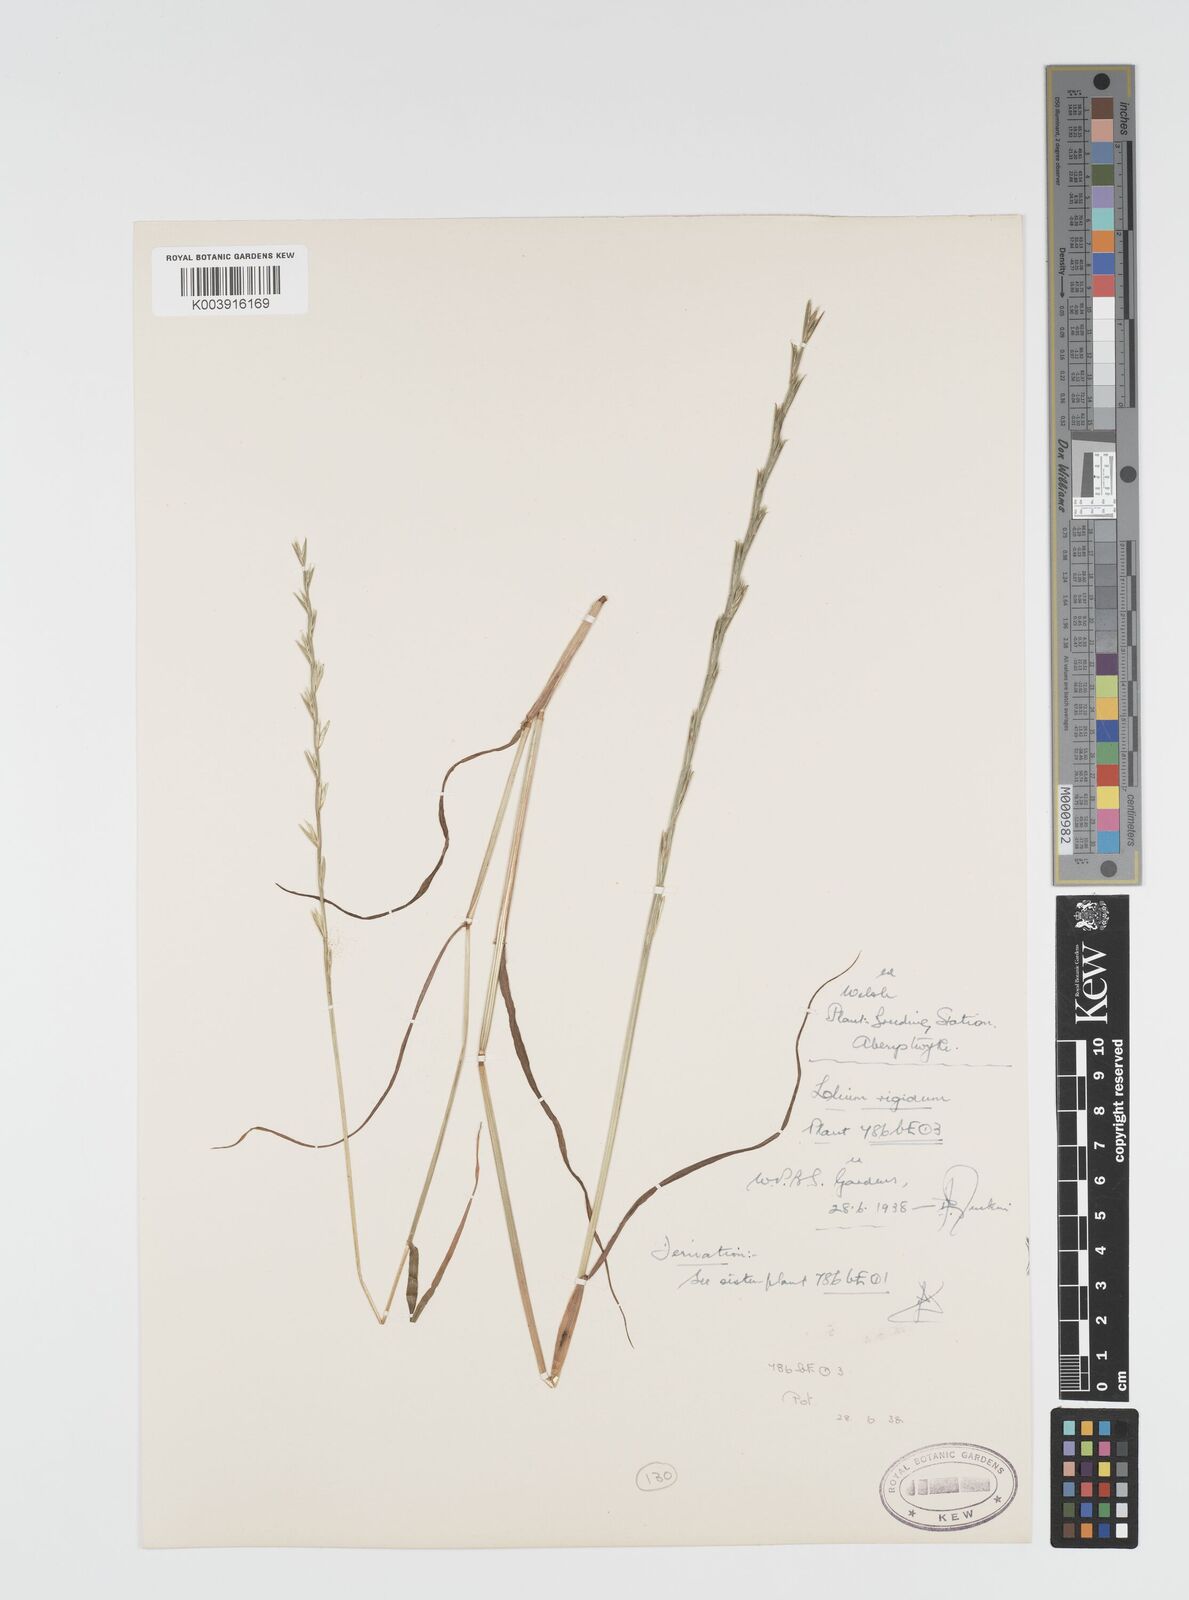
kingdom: Plantae
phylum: Tracheophyta
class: Liliopsida
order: Poales
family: Poaceae
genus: Lolium
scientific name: Lolium rigidum
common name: Wimmera ryegrass
